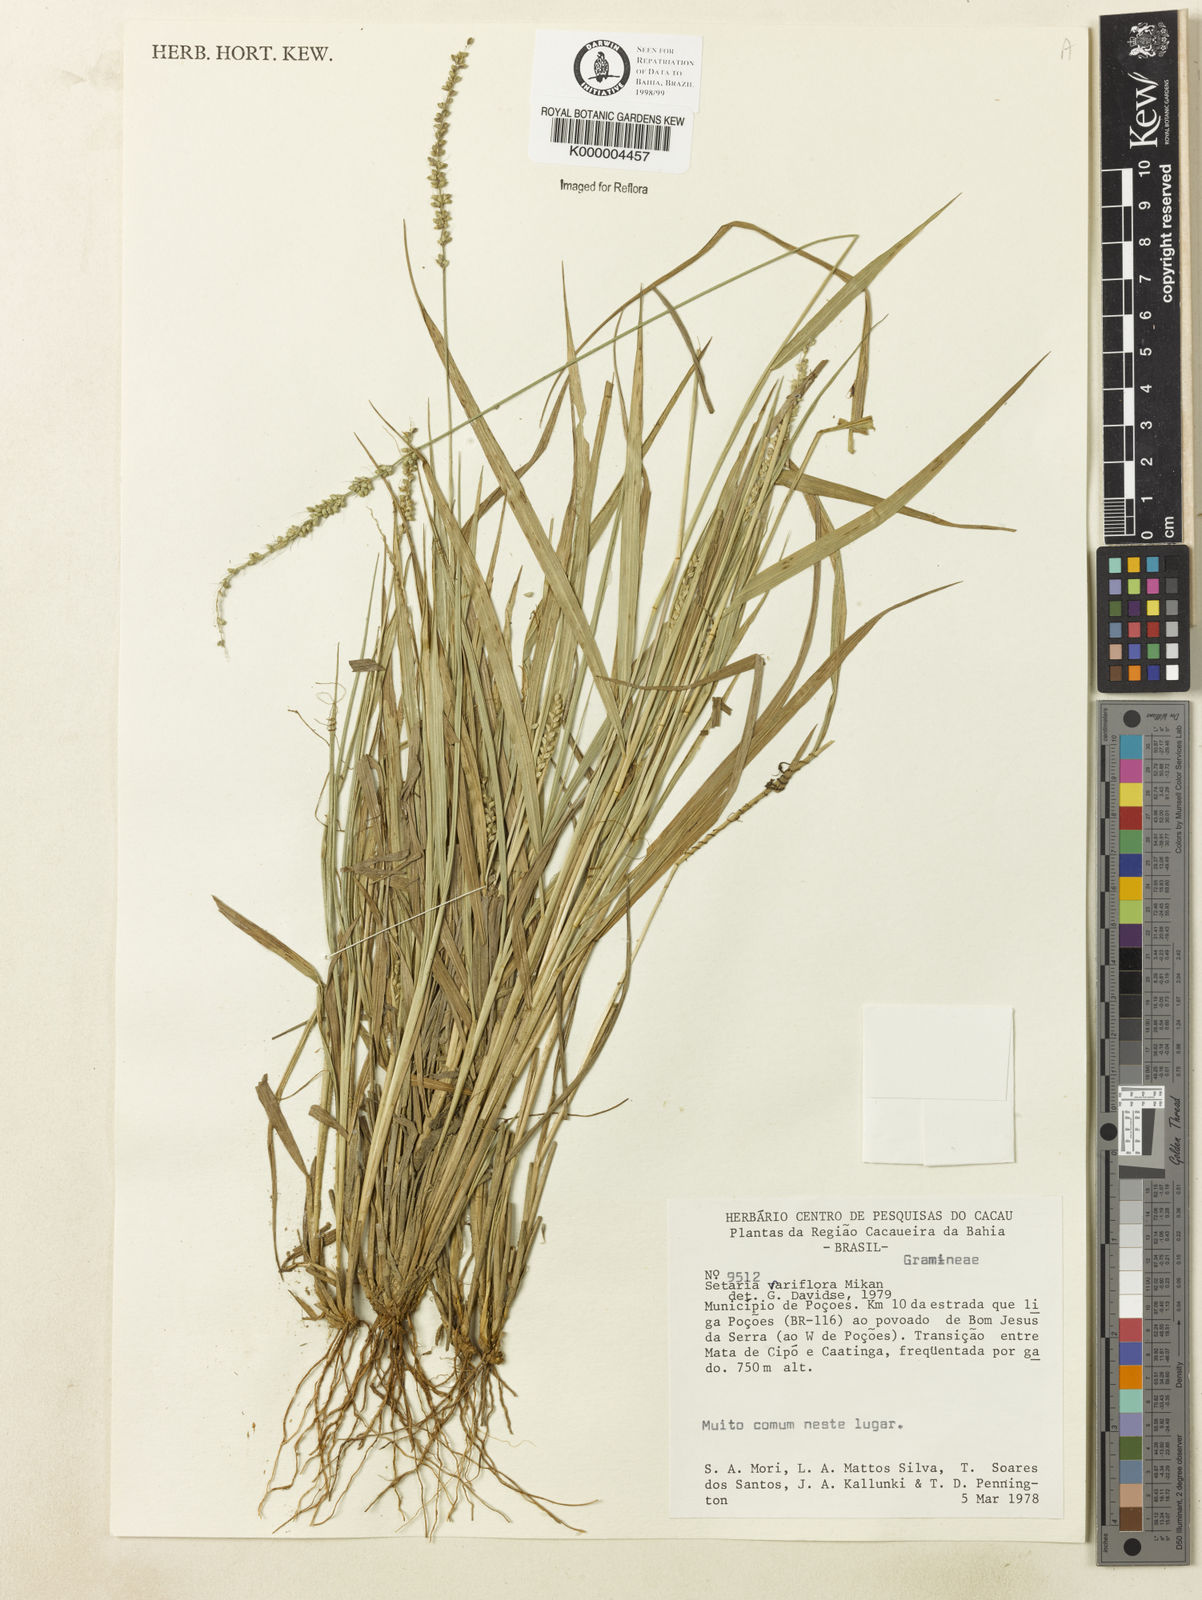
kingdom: Plantae
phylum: Tracheophyta
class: Liliopsida
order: Poales
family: Poaceae
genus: Setaria
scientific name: Setaria setosa
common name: West indies bristle grass
